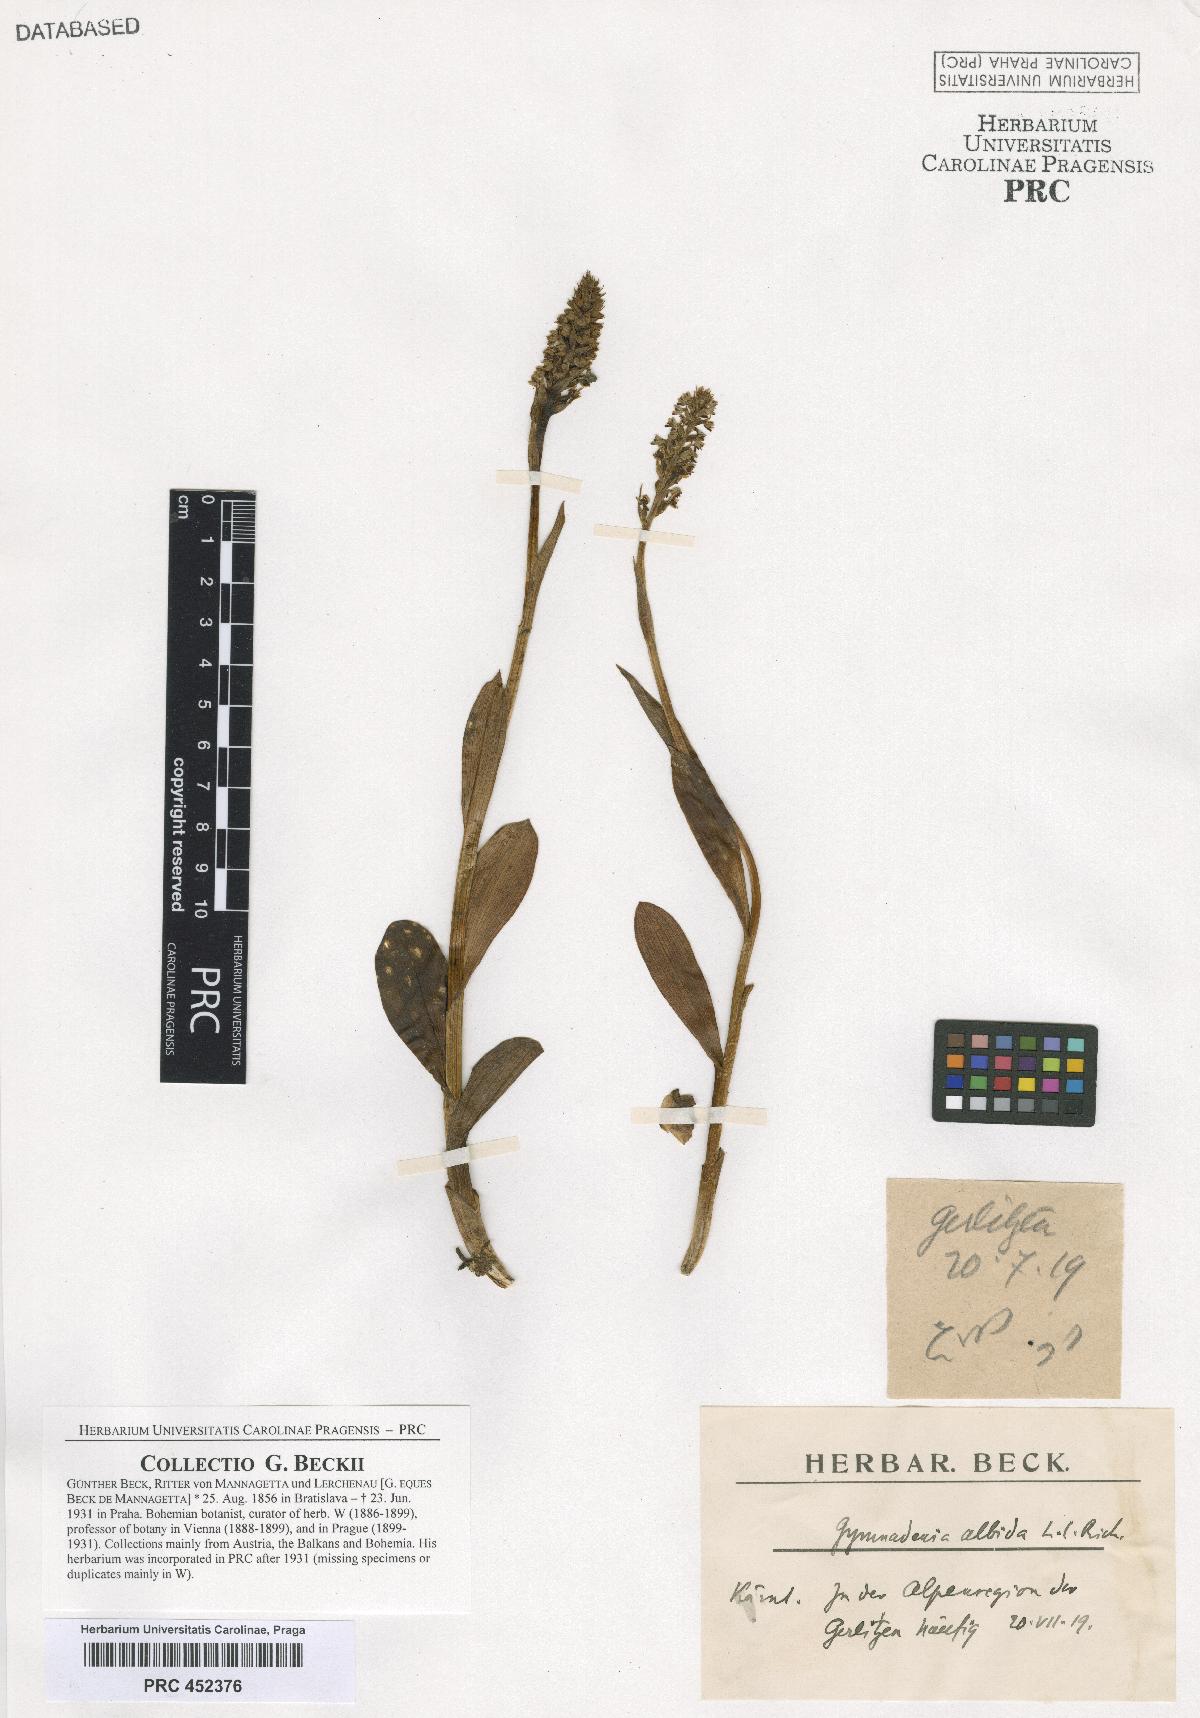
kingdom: Plantae
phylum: Tracheophyta
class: Liliopsida
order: Asparagales
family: Orchidaceae
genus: Pseudorchis
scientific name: Pseudorchis albida
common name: Small-white orchid
